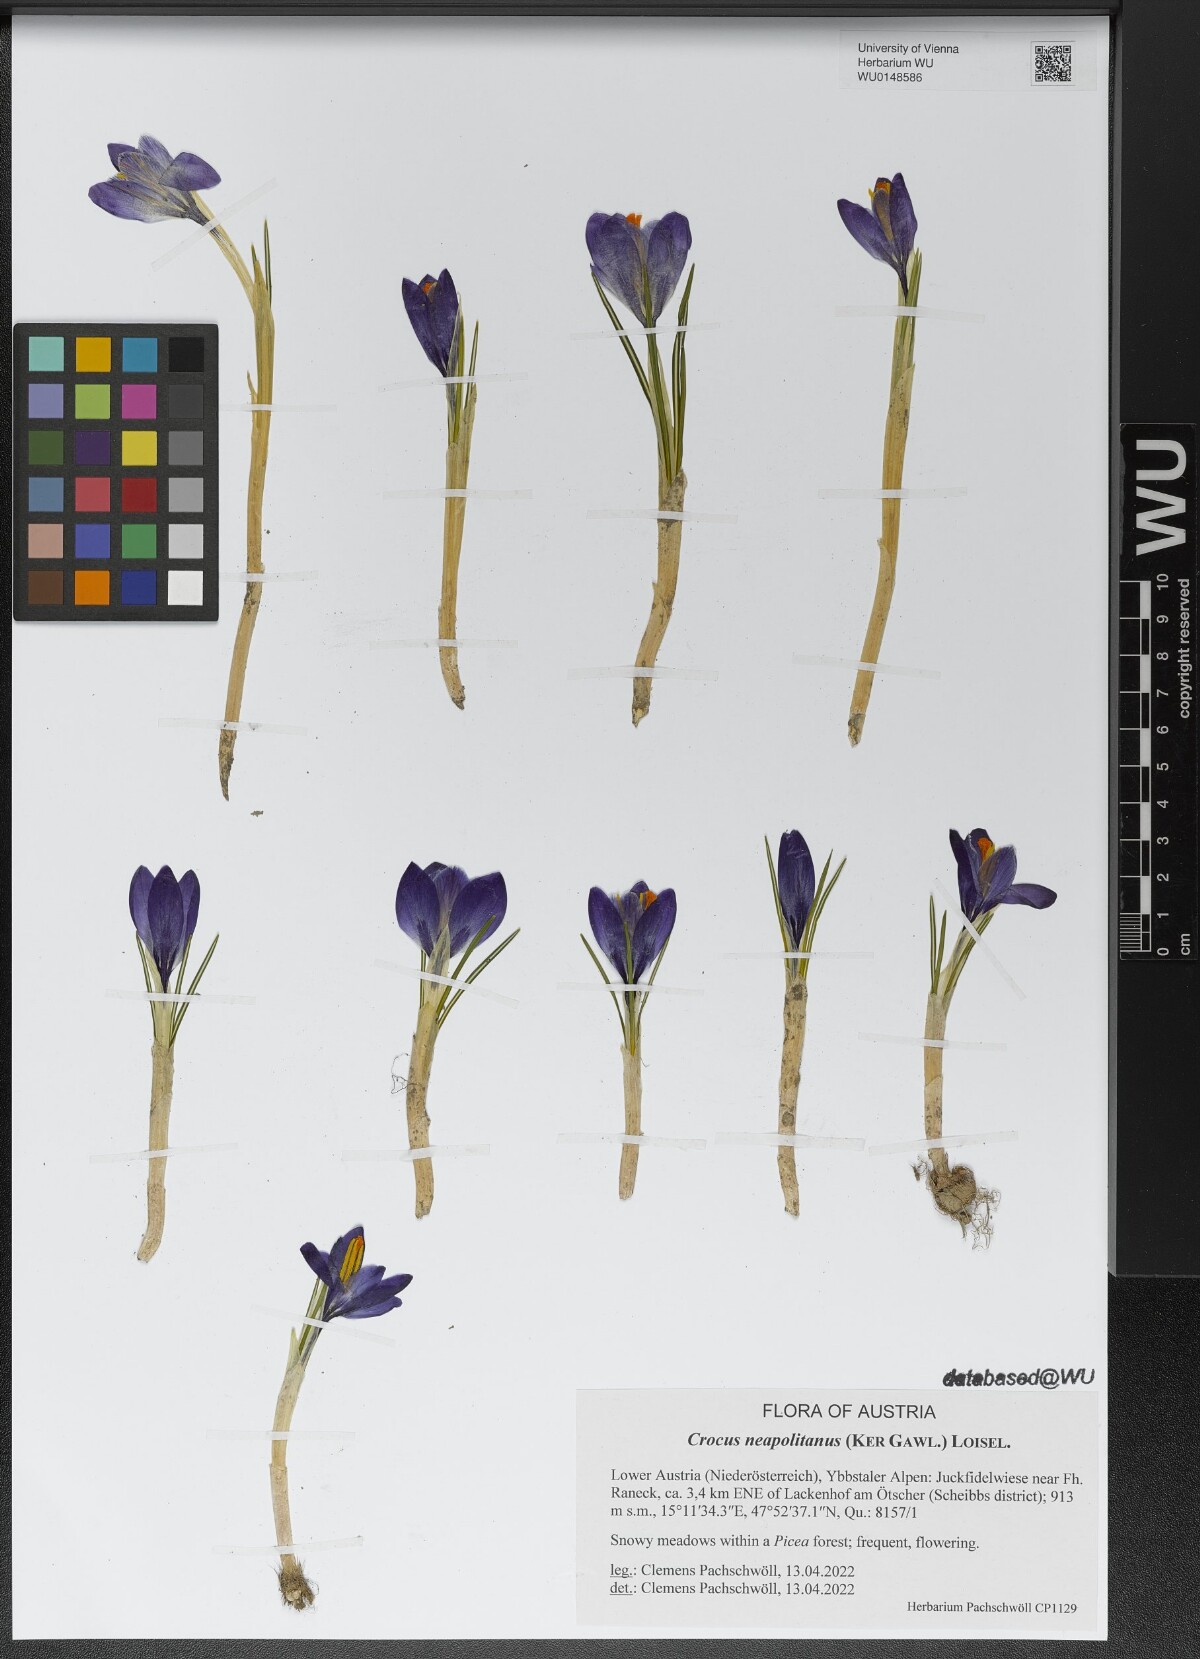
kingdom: Plantae
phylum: Tracheophyta
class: Liliopsida
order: Asparagales
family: Iridaceae
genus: Crocus
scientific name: Crocus neapolitanus
